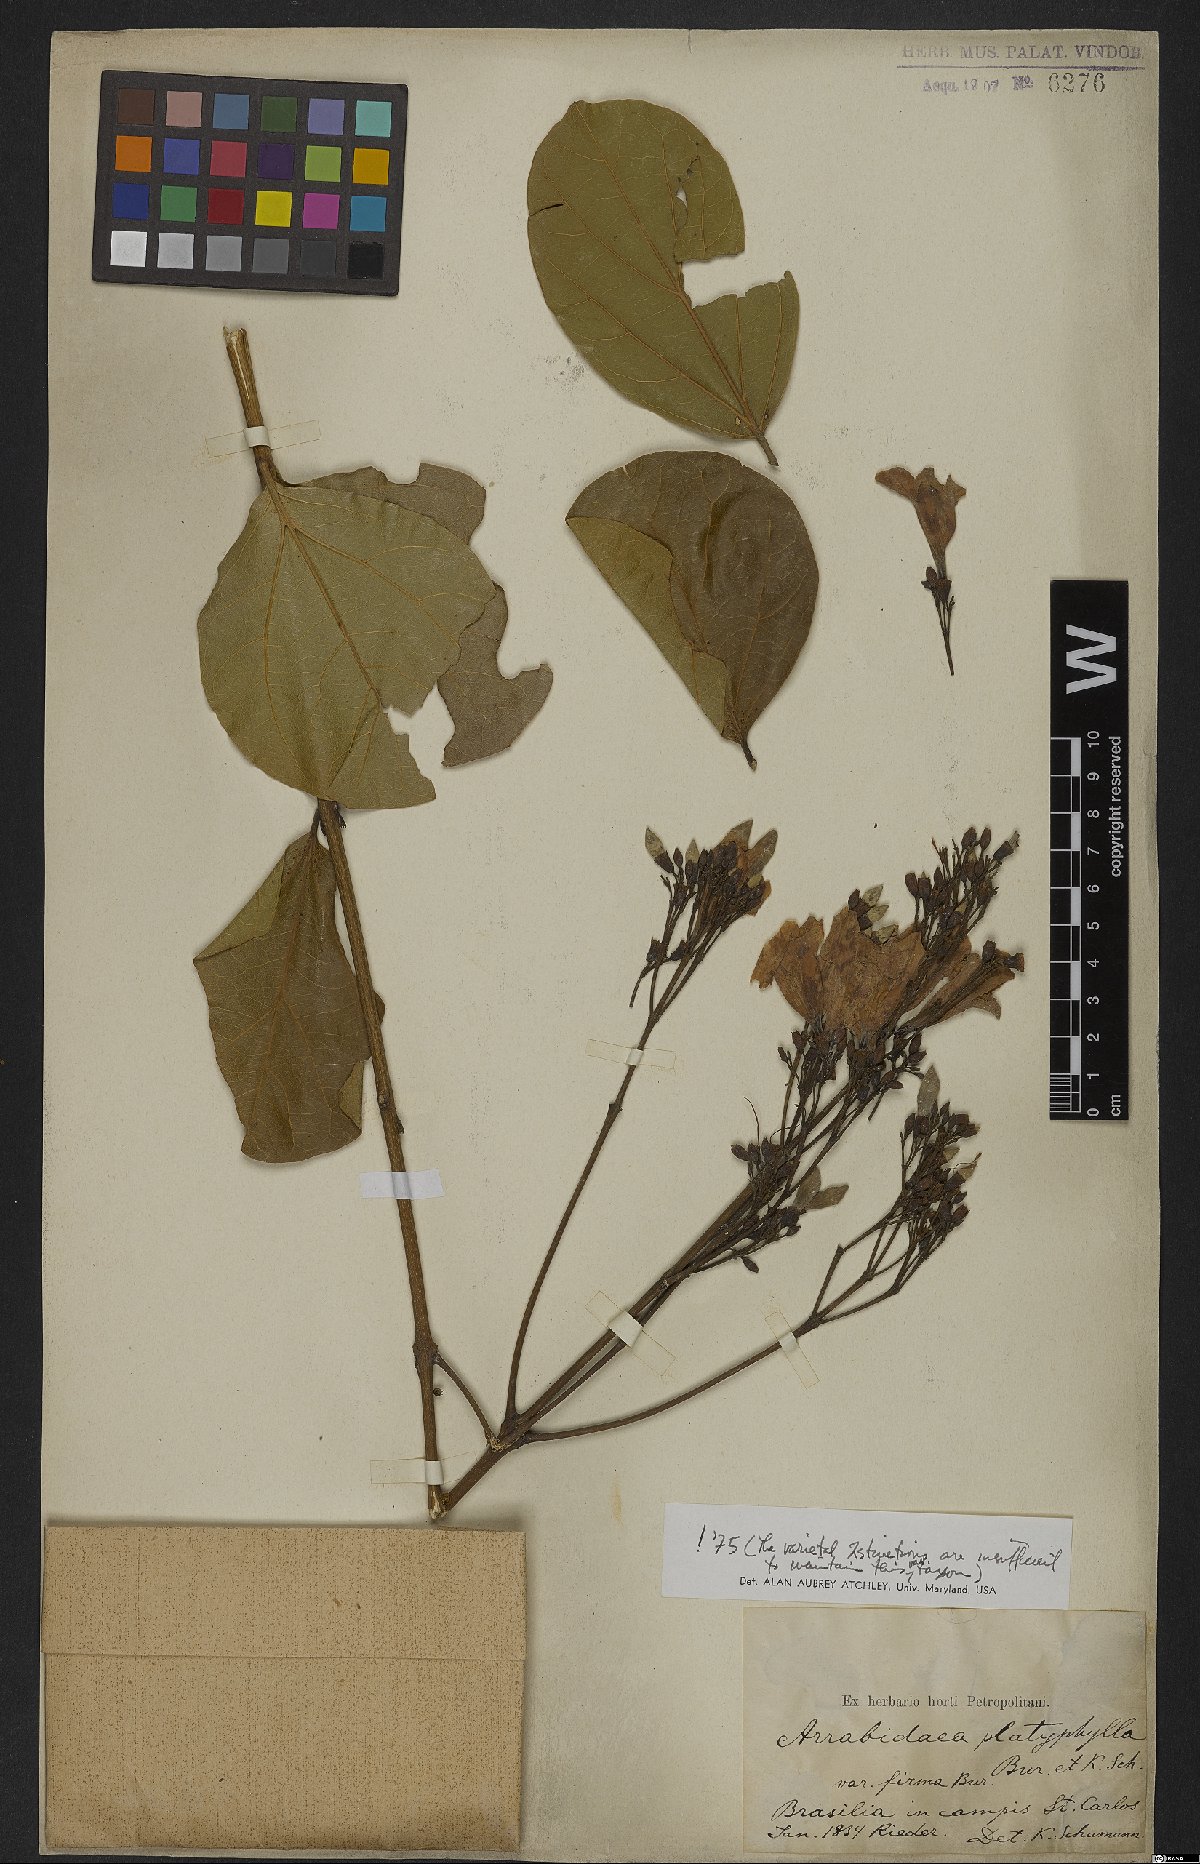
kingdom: Plantae
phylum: Tracheophyta
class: Magnoliopsida
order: Lamiales
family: Bignoniaceae
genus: Xylophragma
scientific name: Xylophragma platyphyllum
